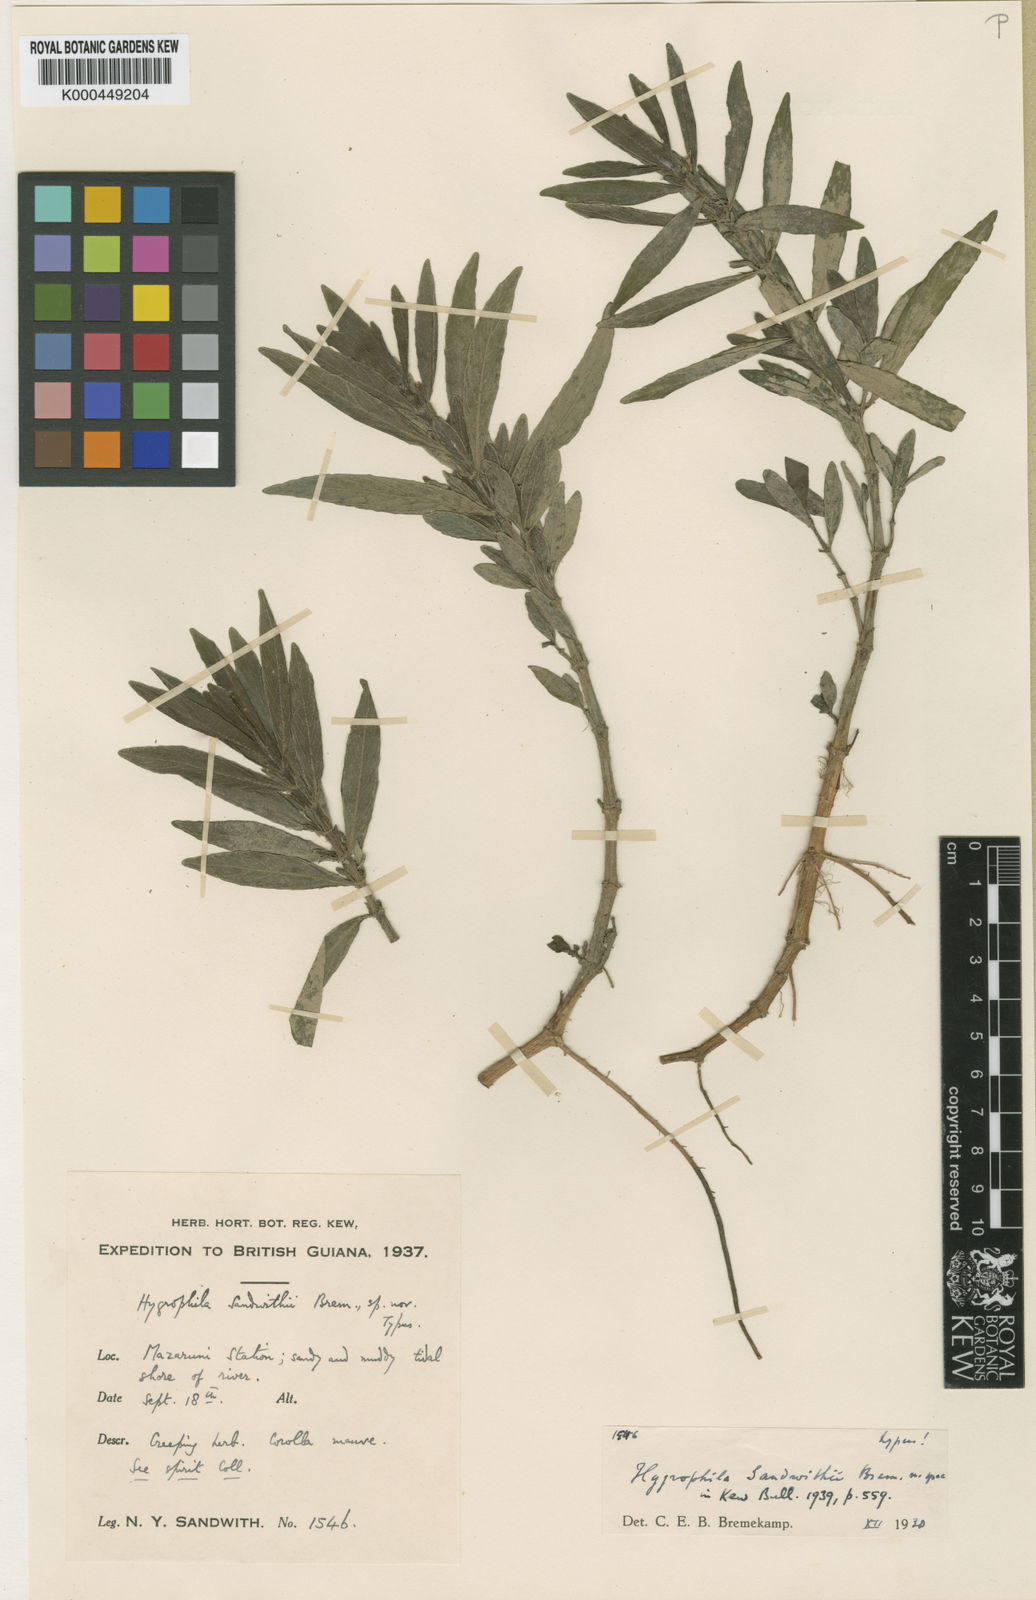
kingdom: Plantae
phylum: Tracheophyta
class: Magnoliopsida
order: Lamiales
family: Acanthaceae
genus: Hygrophila
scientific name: Hygrophila sandwithii
